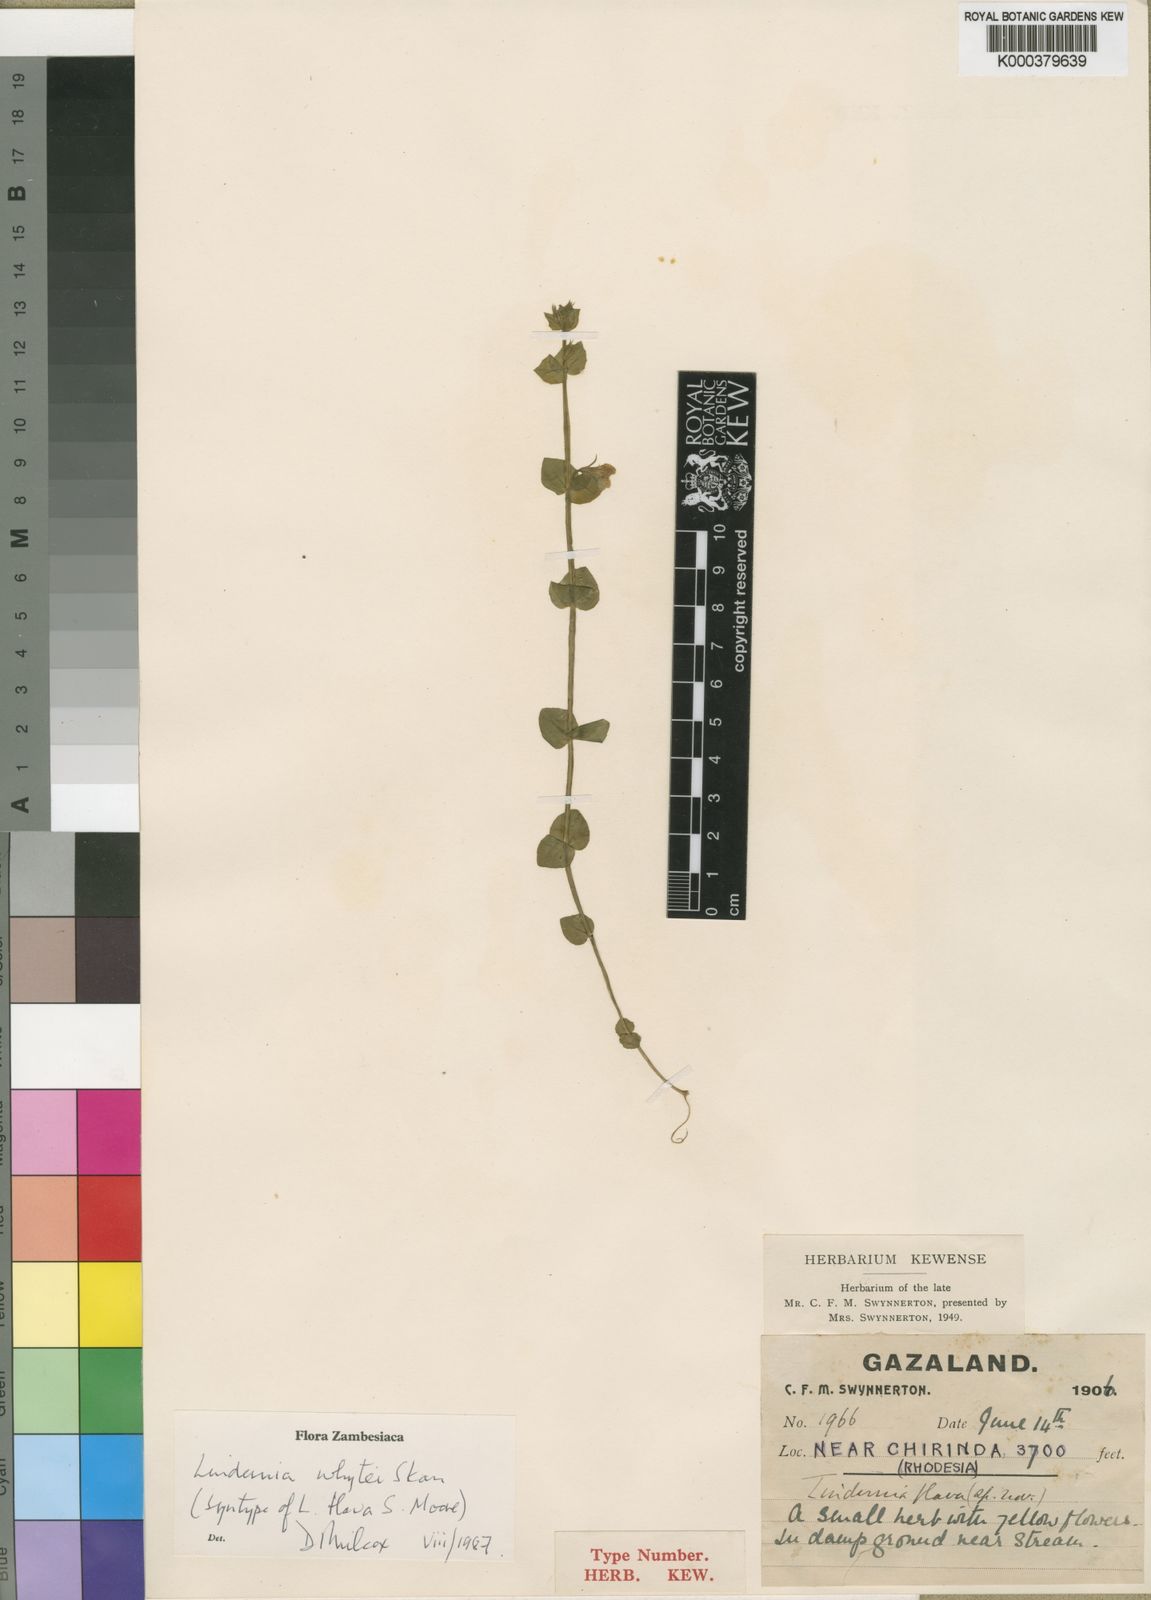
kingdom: Plantae
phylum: Tracheophyta
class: Magnoliopsida
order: Lamiales
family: Linderniaceae
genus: Crepidorhopalon
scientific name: Crepidorhopalon flavus
